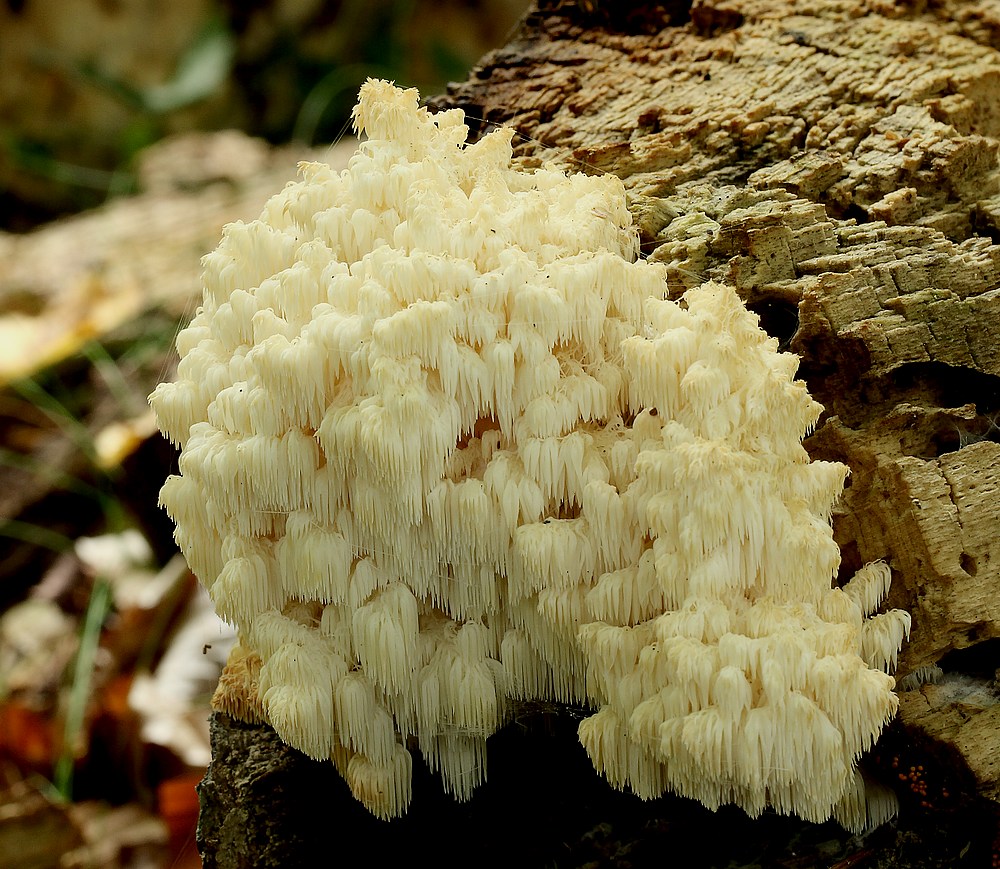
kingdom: Fungi
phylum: Basidiomycota
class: Agaricomycetes
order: Russulales
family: Hericiaceae
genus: Hericium
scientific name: Hericium coralloides
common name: koralpigsvamp
